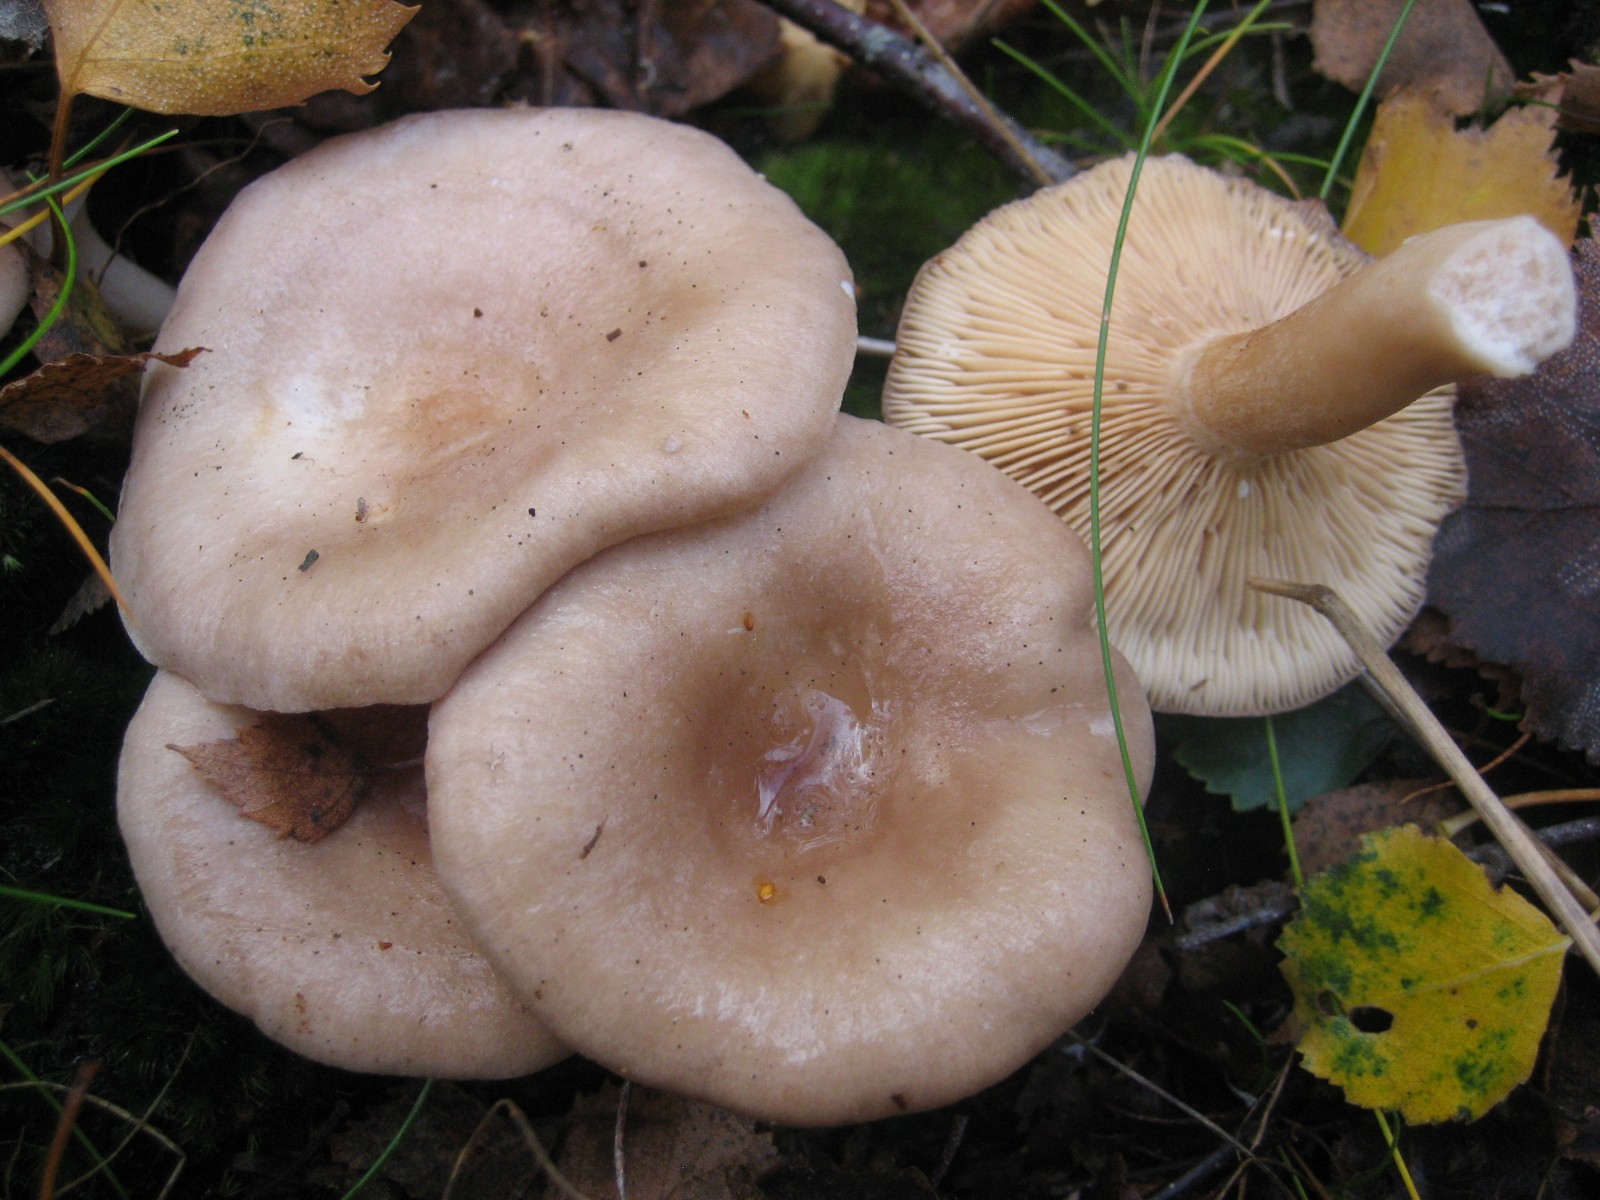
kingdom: Fungi
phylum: Basidiomycota
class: Agaricomycetes
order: Russulales
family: Russulaceae
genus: Lactarius
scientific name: Lactarius vietus
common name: violetgrå mælkehat
